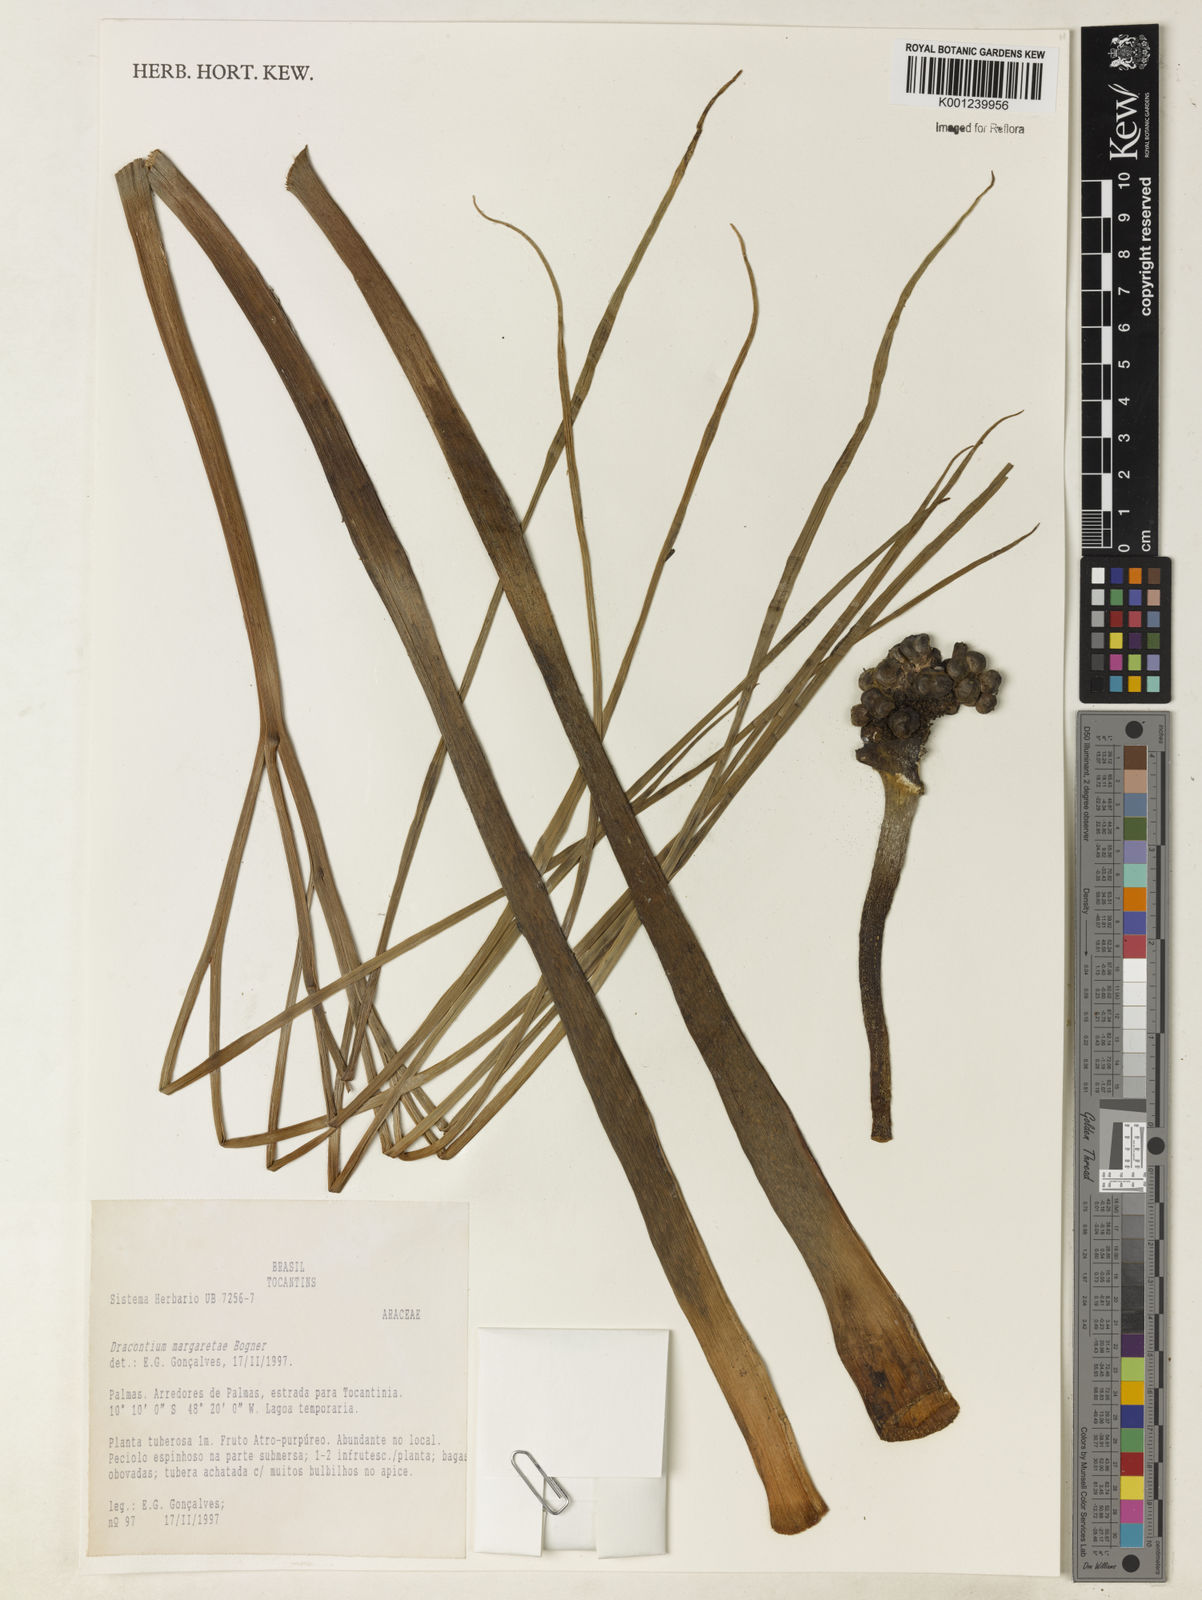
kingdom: Plantae
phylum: Tracheophyta
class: Liliopsida
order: Alismatales
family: Araceae
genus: Dracontium
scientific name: Dracontium margaretae
